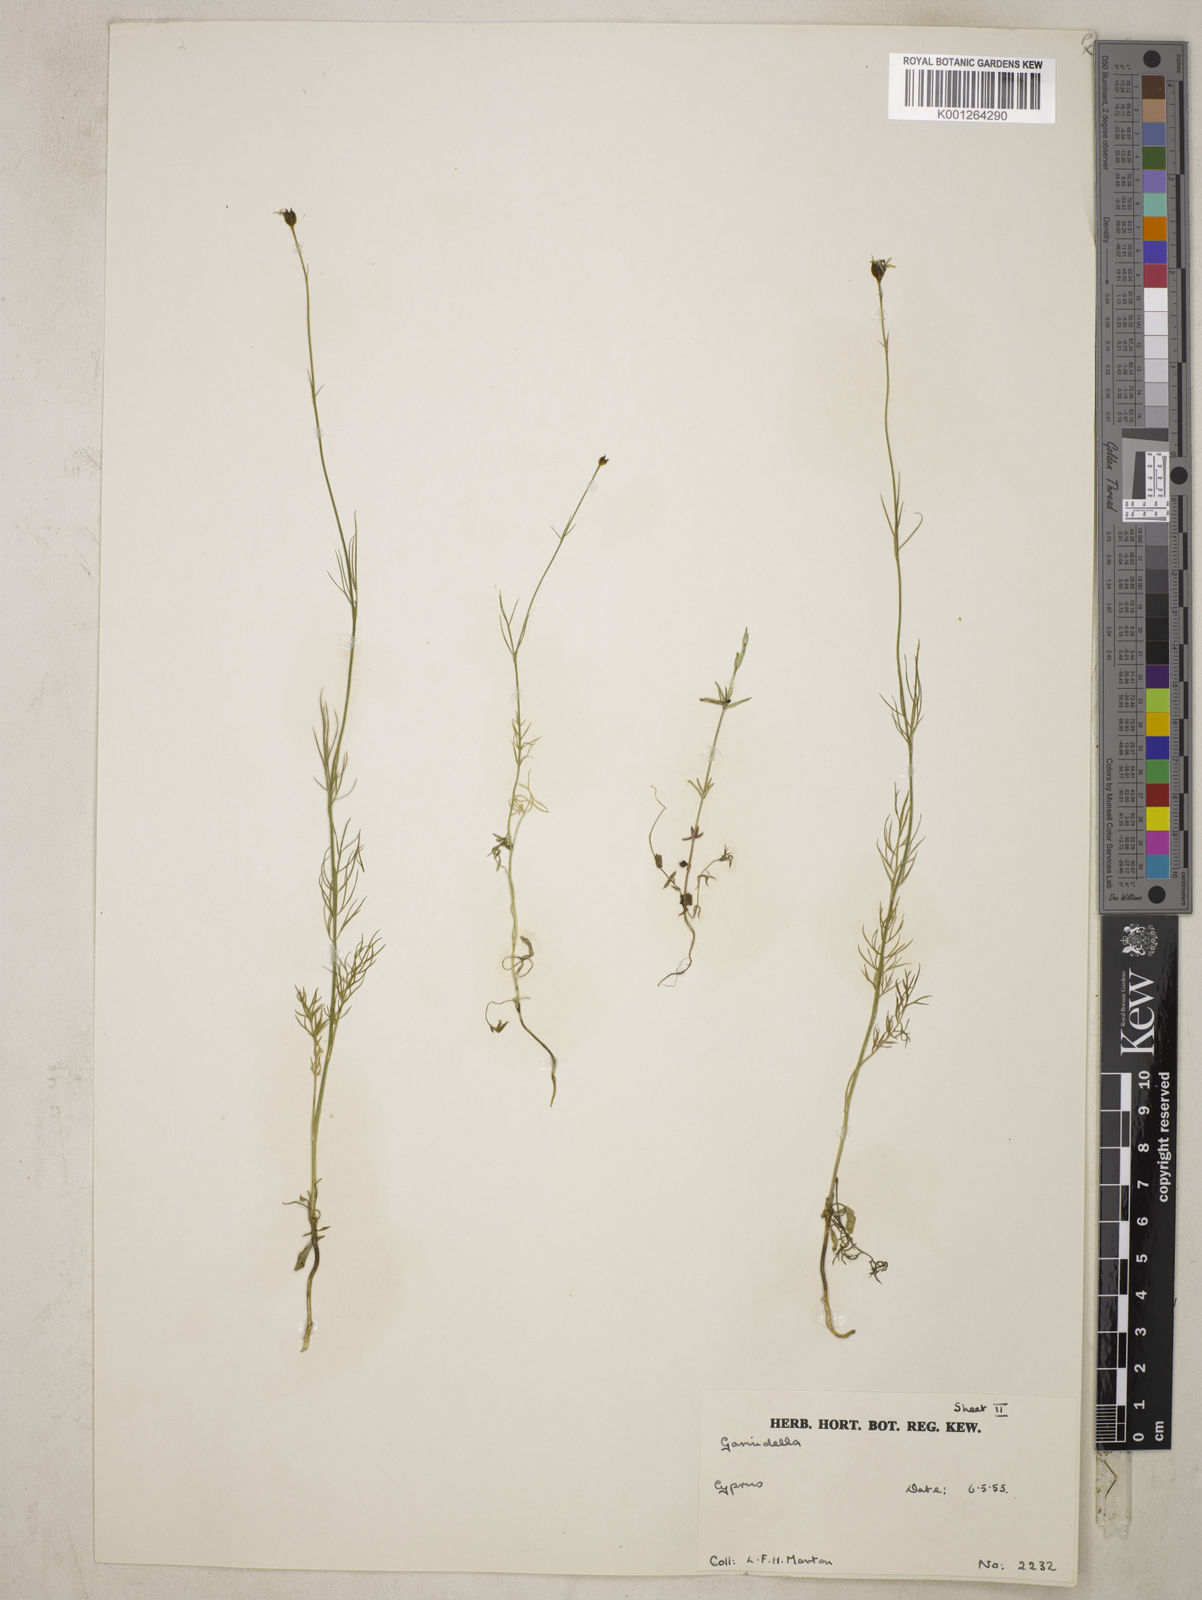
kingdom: Plantae
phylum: Tracheophyta
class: Magnoliopsida
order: Ranunculales
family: Ranunculaceae
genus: Garidella
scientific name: Garidella nigellastrum
